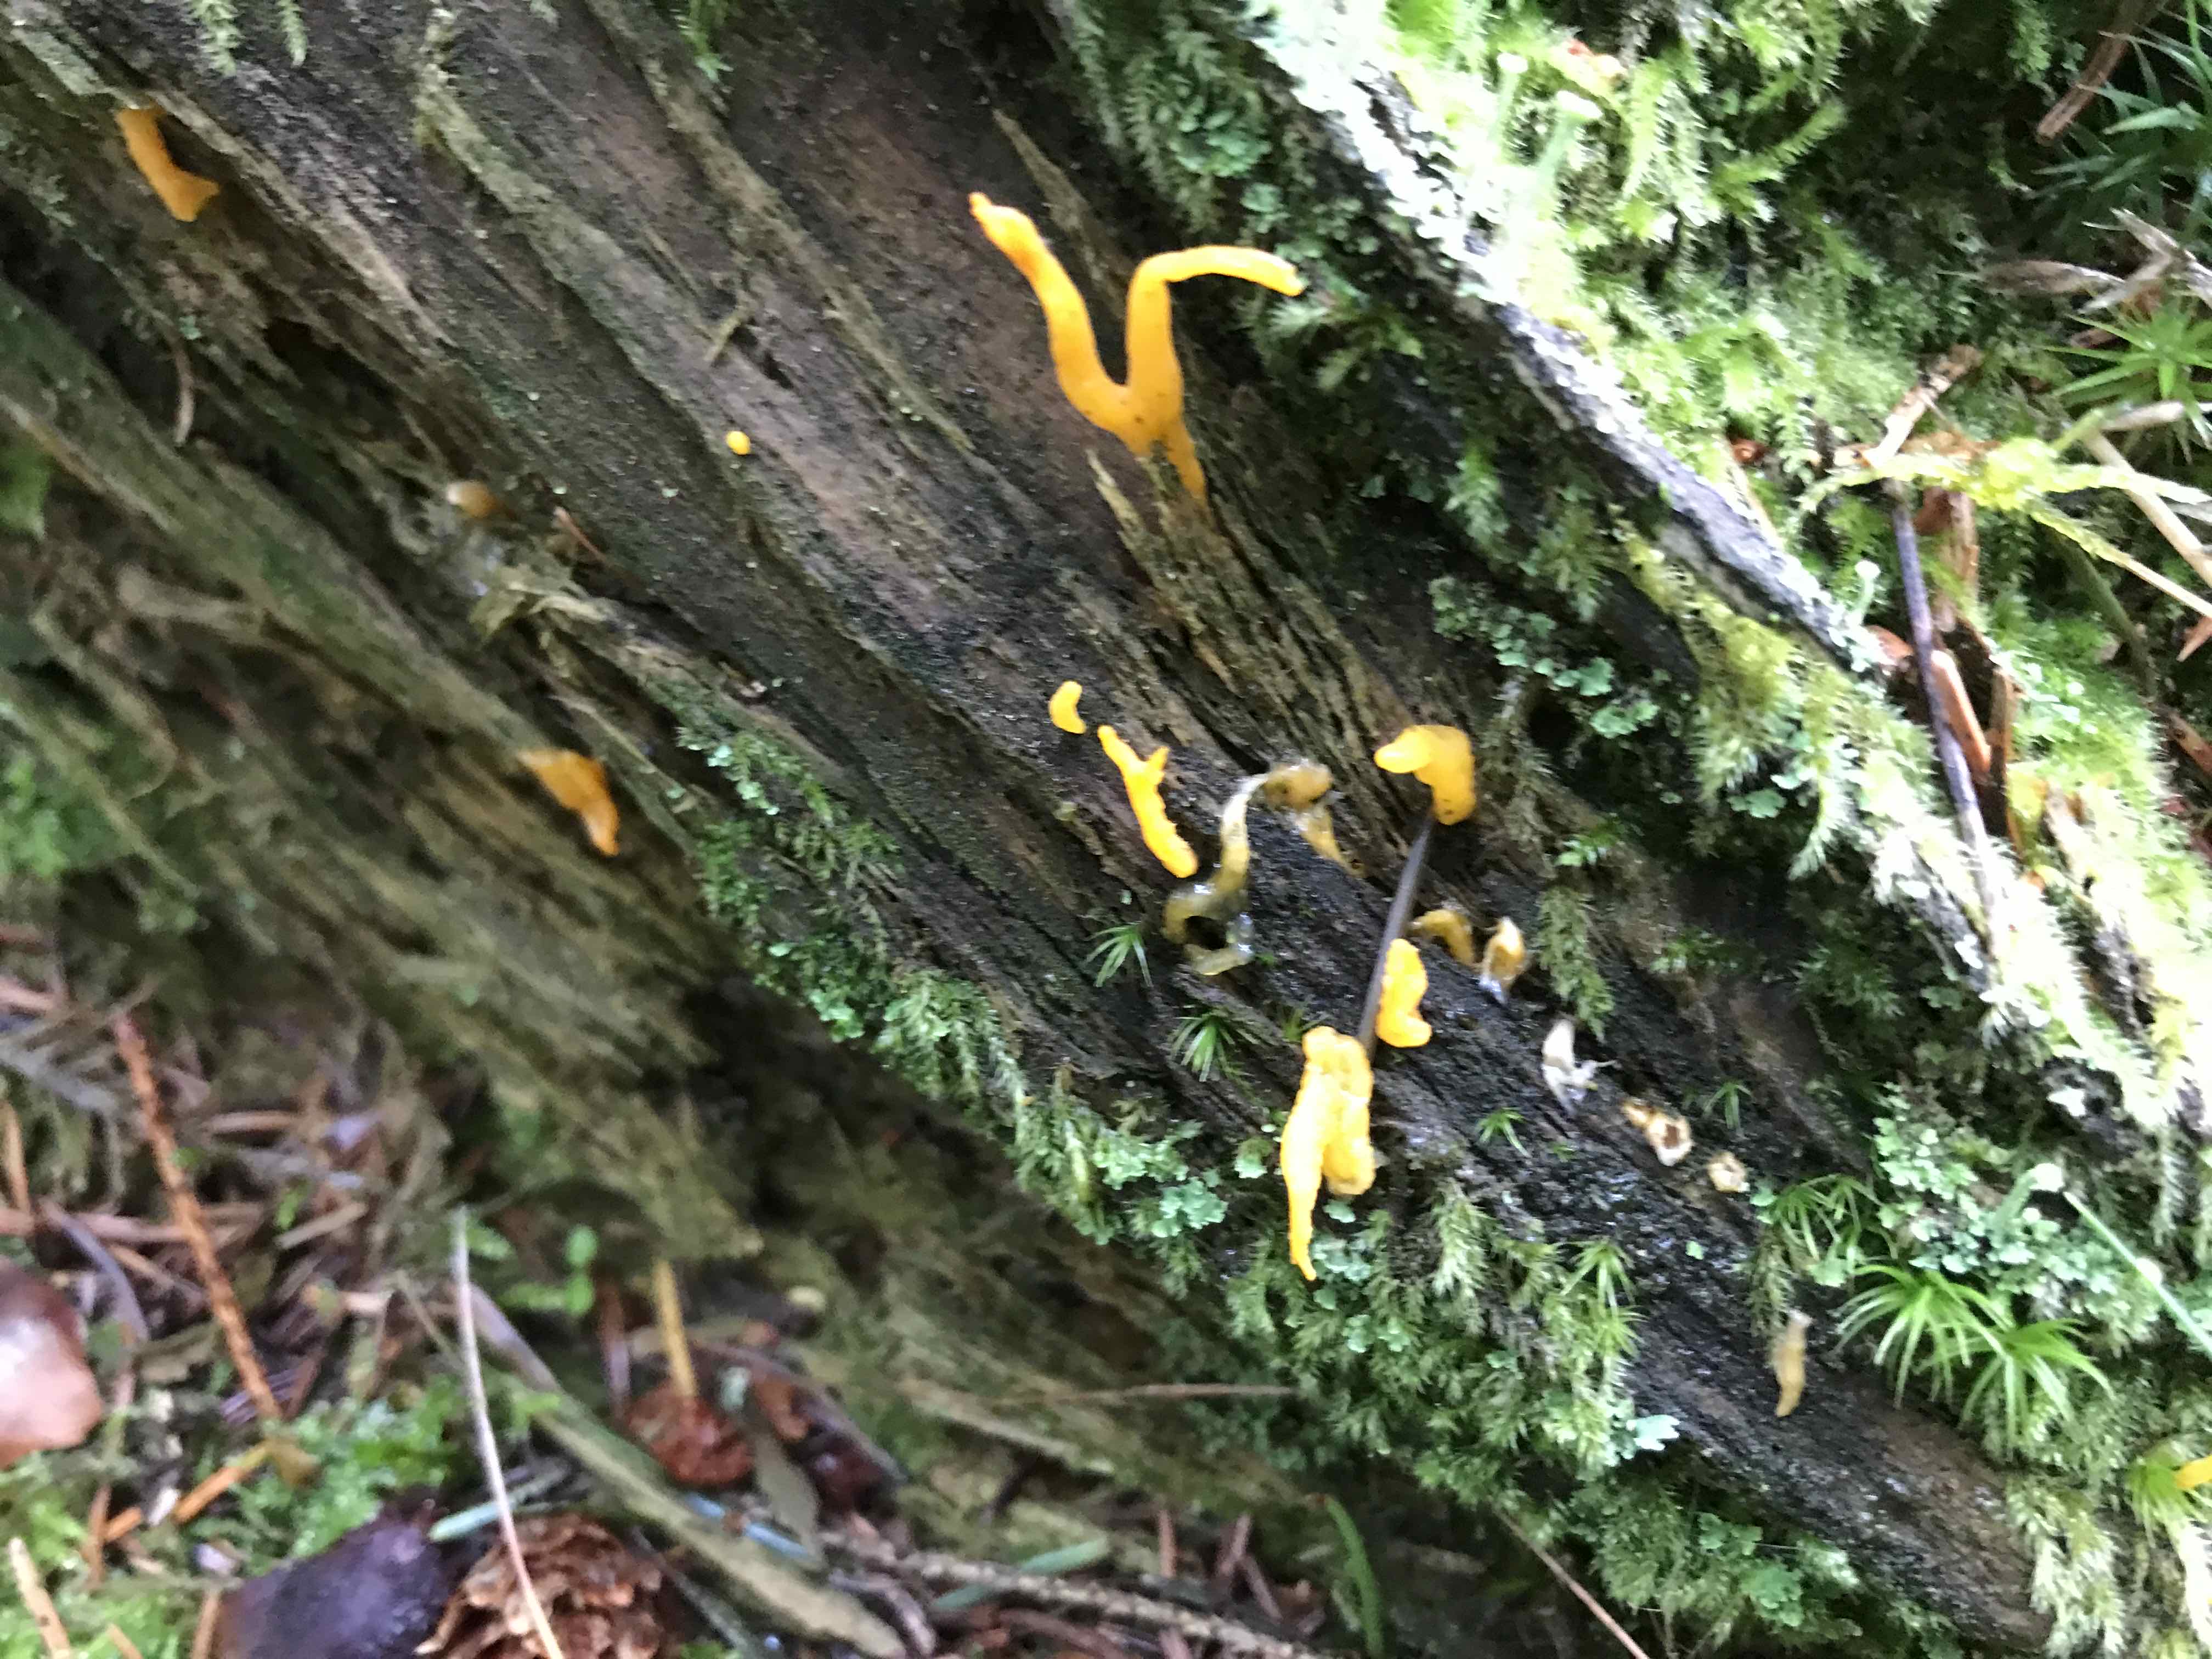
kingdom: Fungi
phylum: Basidiomycota
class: Dacrymycetes
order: Dacrymycetales
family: Dacrymycetaceae
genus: Calocera
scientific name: Calocera cornea
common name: liden guldgaffel
